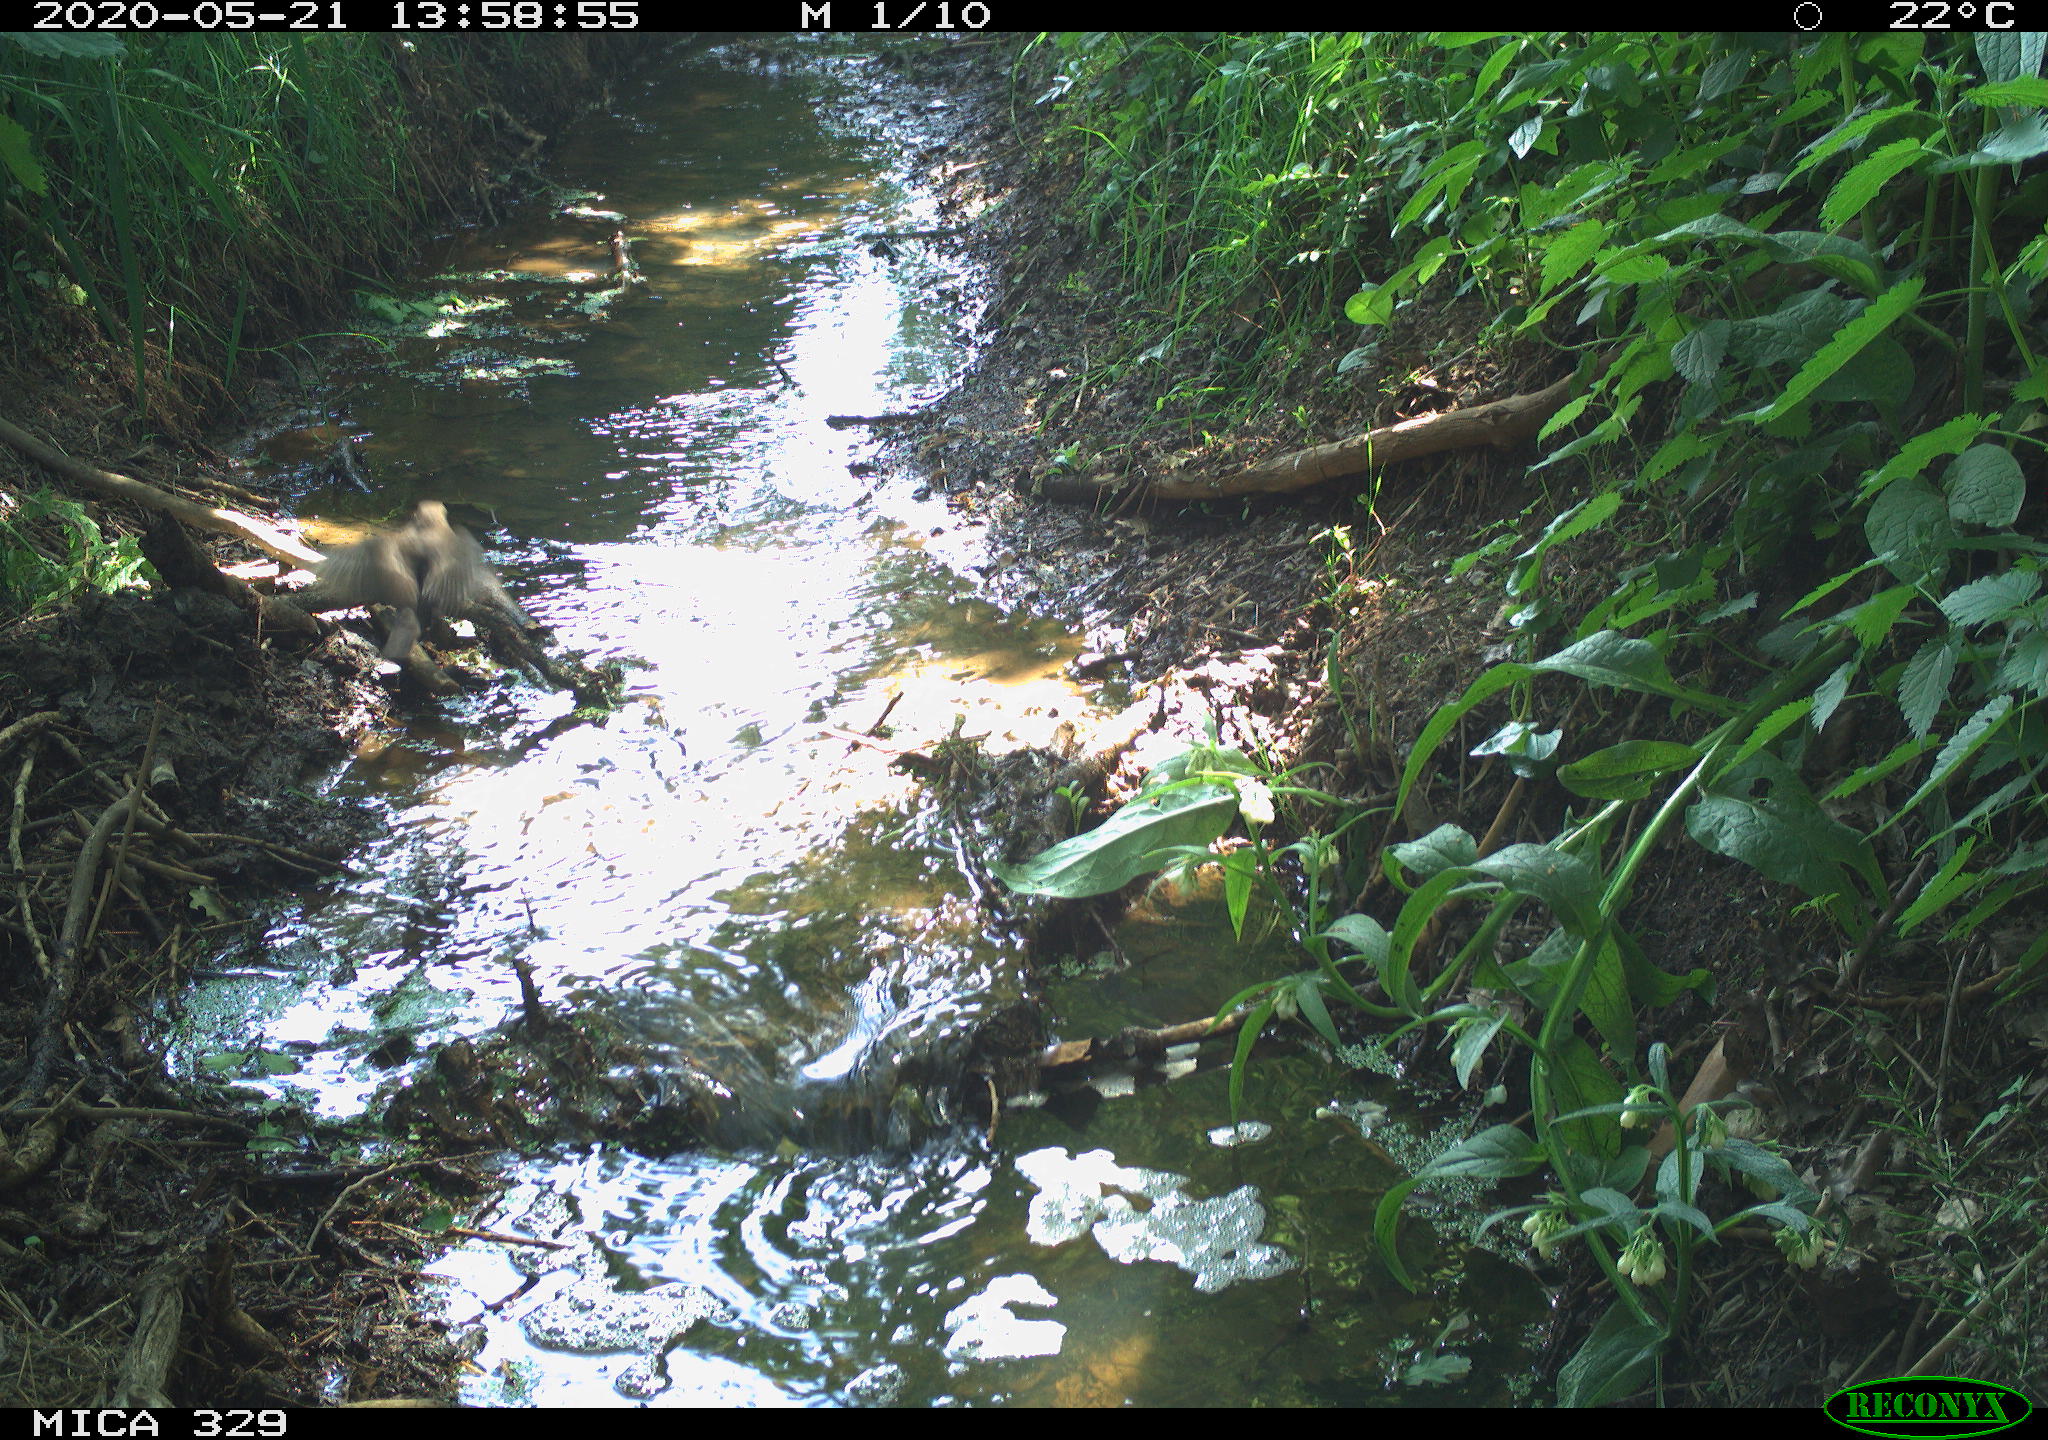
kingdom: Animalia
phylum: Chordata
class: Aves
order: Passeriformes
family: Turdidae
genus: Turdus
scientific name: Turdus merula
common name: Common blackbird
